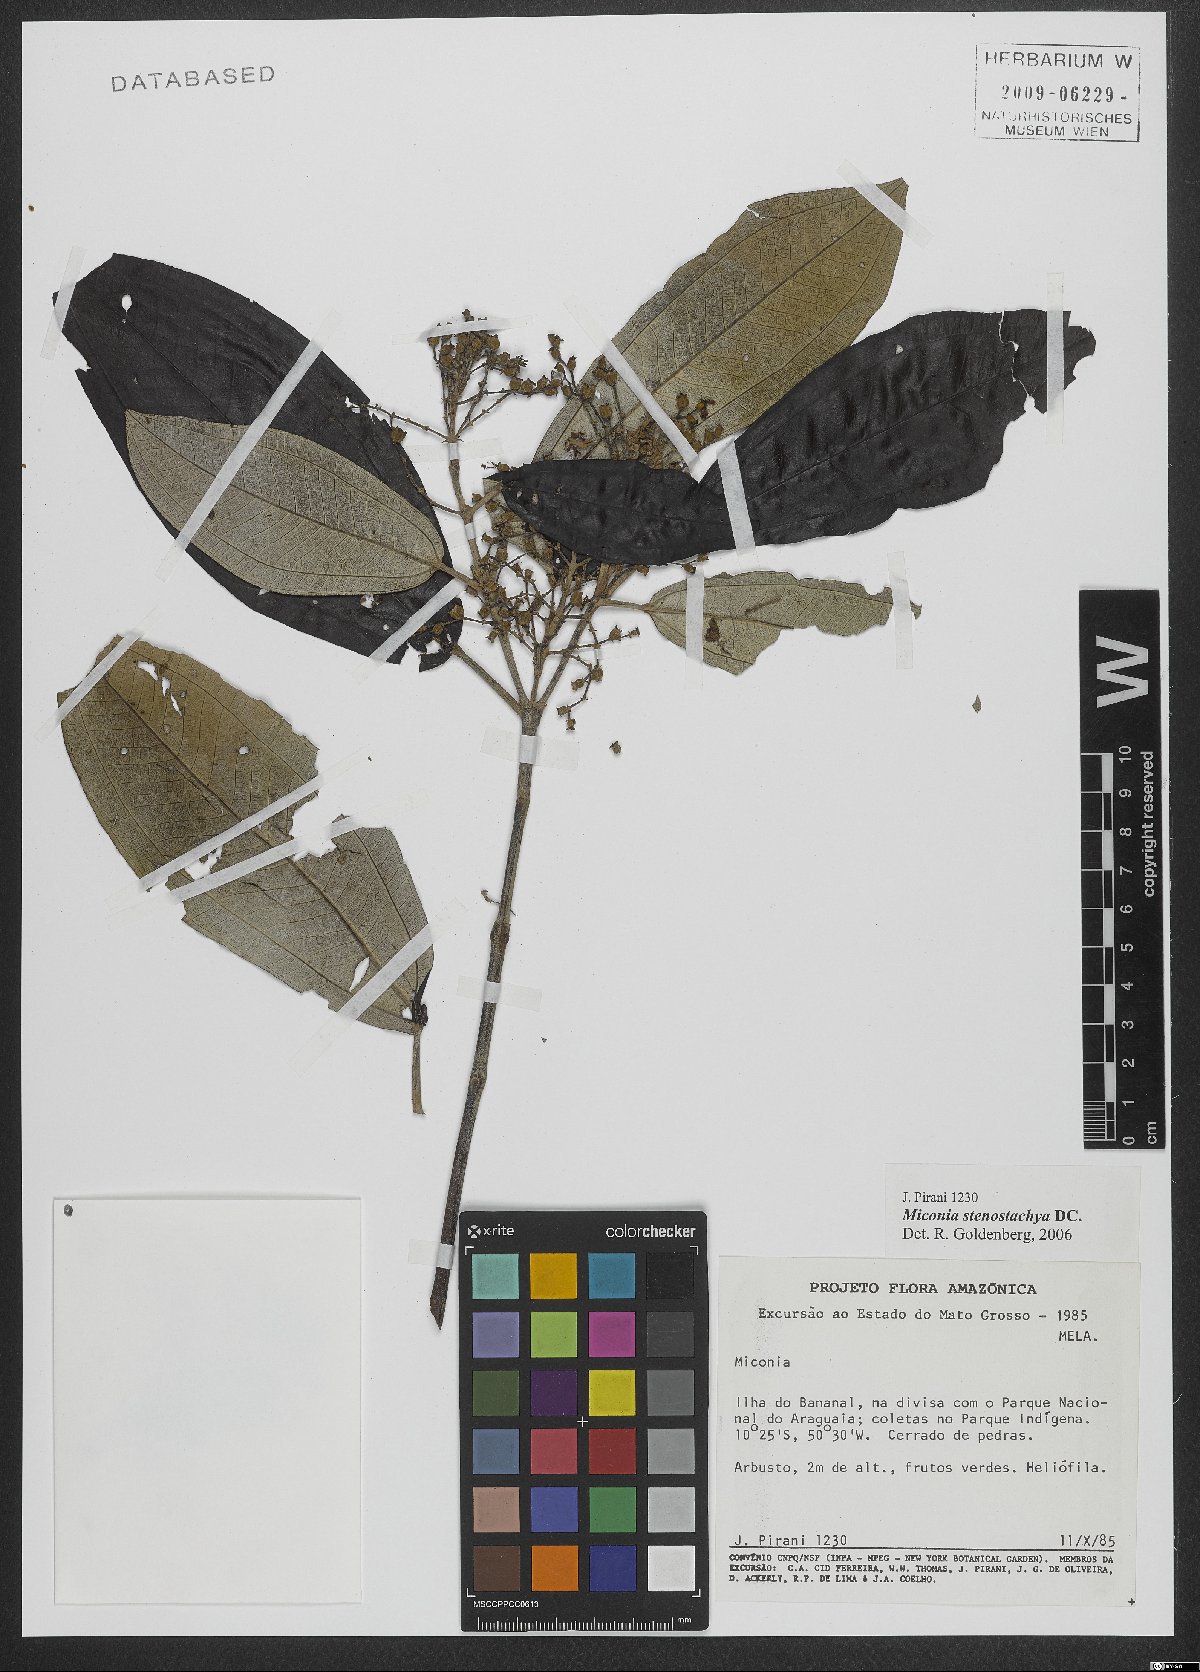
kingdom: Plantae
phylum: Tracheophyta
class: Magnoliopsida
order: Myrtales
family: Melastomataceae
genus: Miconia
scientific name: Miconia stenostachya
